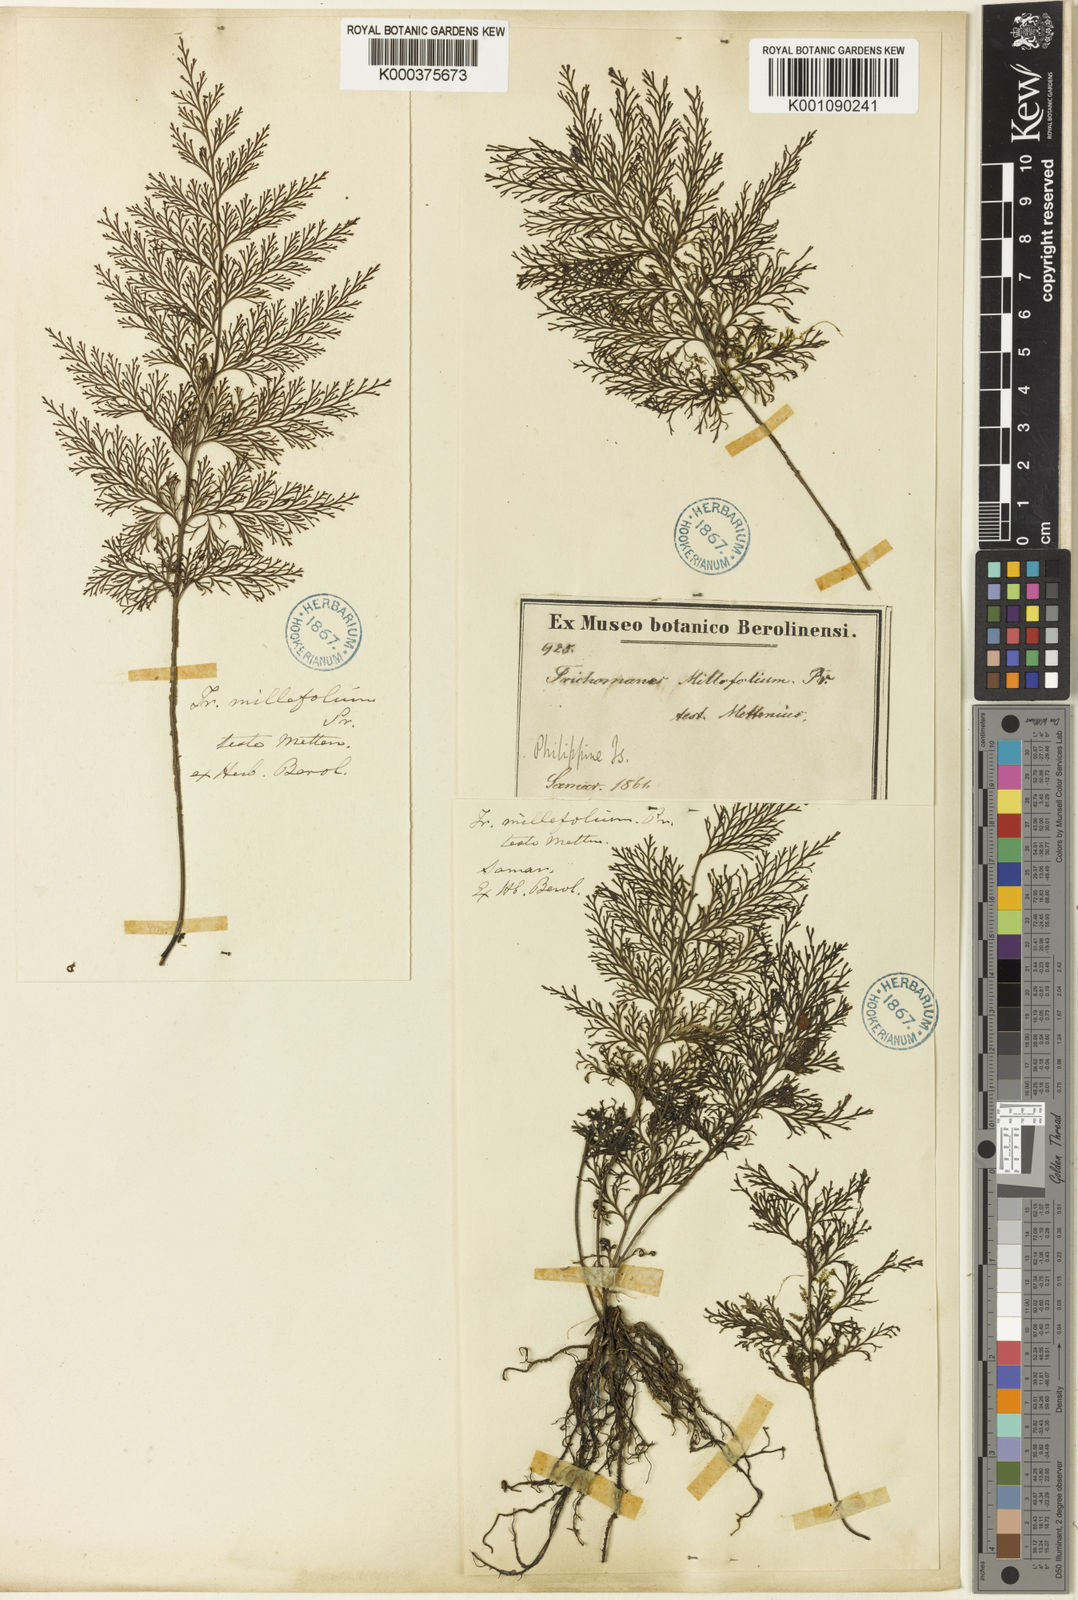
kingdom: Plantae
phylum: Tracheophyta
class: Polypodiopsida
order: Hymenophyllales
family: Hymenophyllaceae
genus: Vandenboschia
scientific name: Vandenboschia maxima
